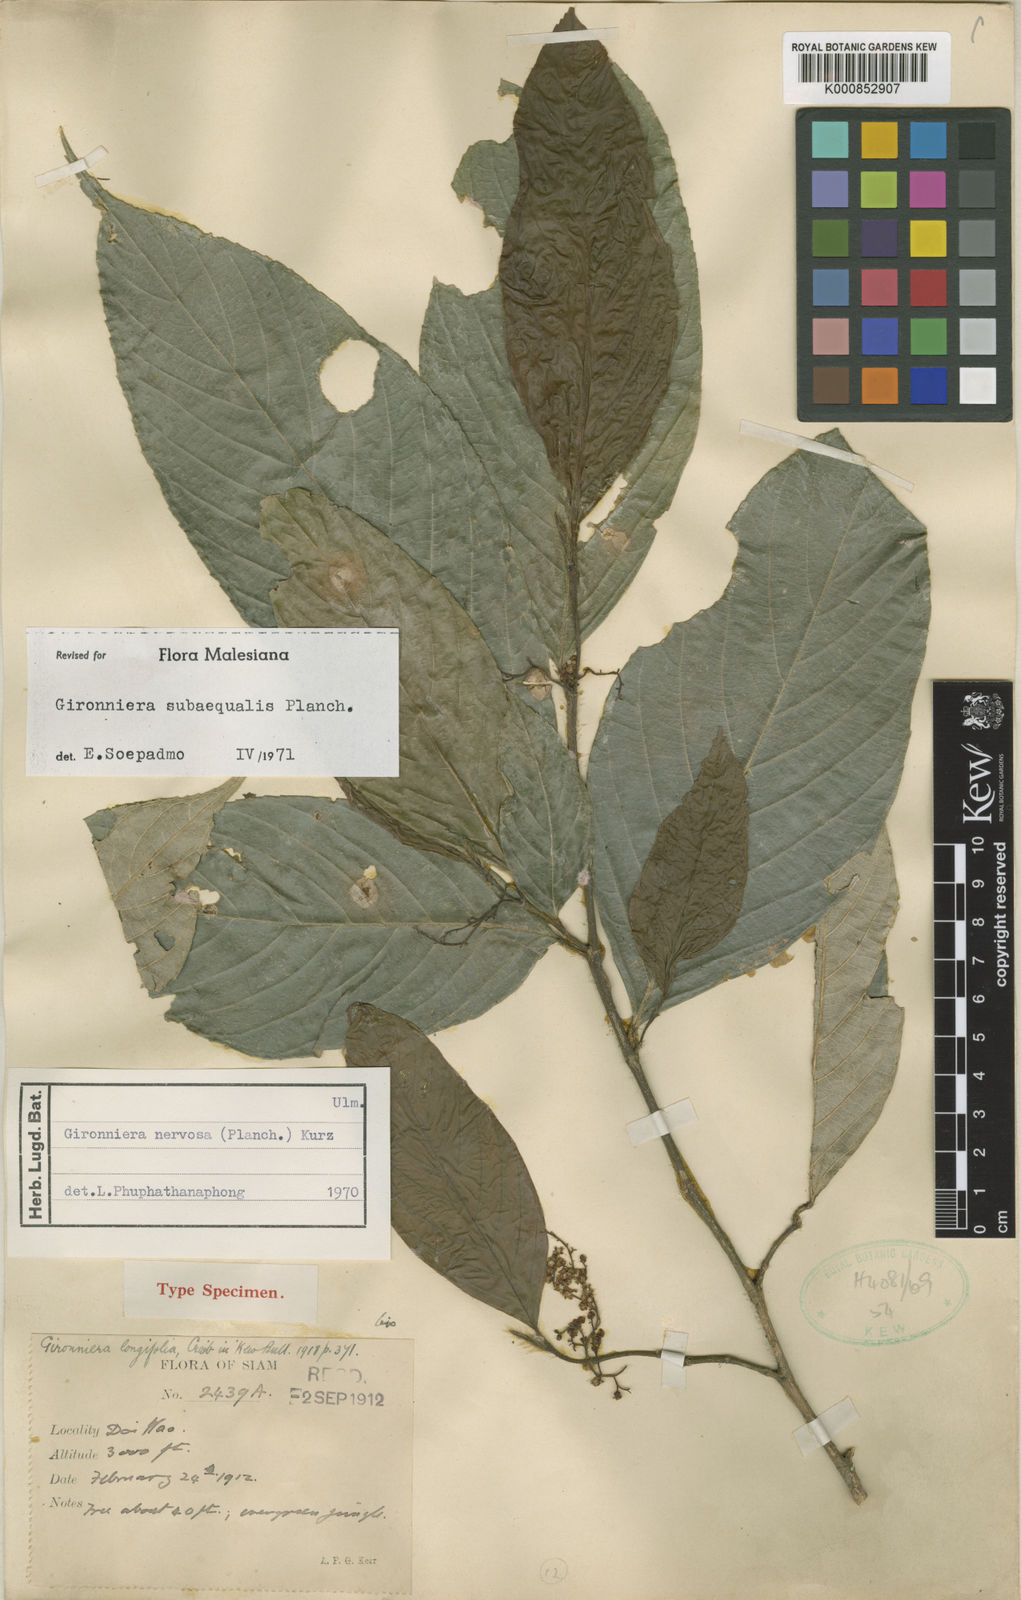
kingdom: Plantae
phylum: Tracheophyta
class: Magnoliopsida
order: Rosales
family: Cannabaceae
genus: Gironniera
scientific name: Gironniera subaequalis
